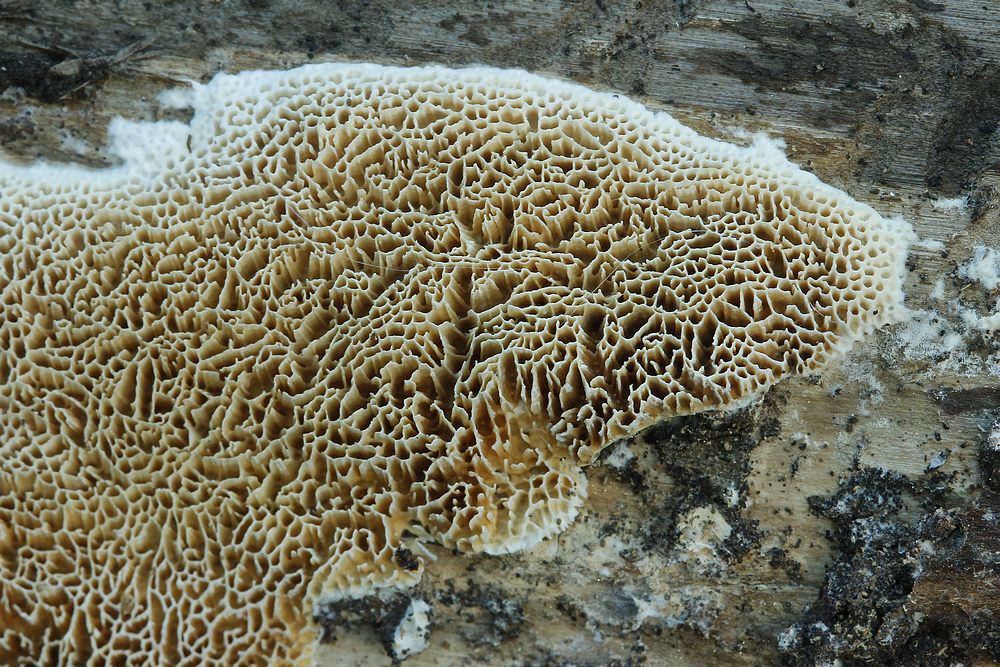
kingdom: Fungi
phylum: Basidiomycota
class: Agaricomycetes
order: Polyporales
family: Fomitopsidaceae
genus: Antrodia
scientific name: Antrodia sinuosa
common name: tømmer-sejporesvamp
